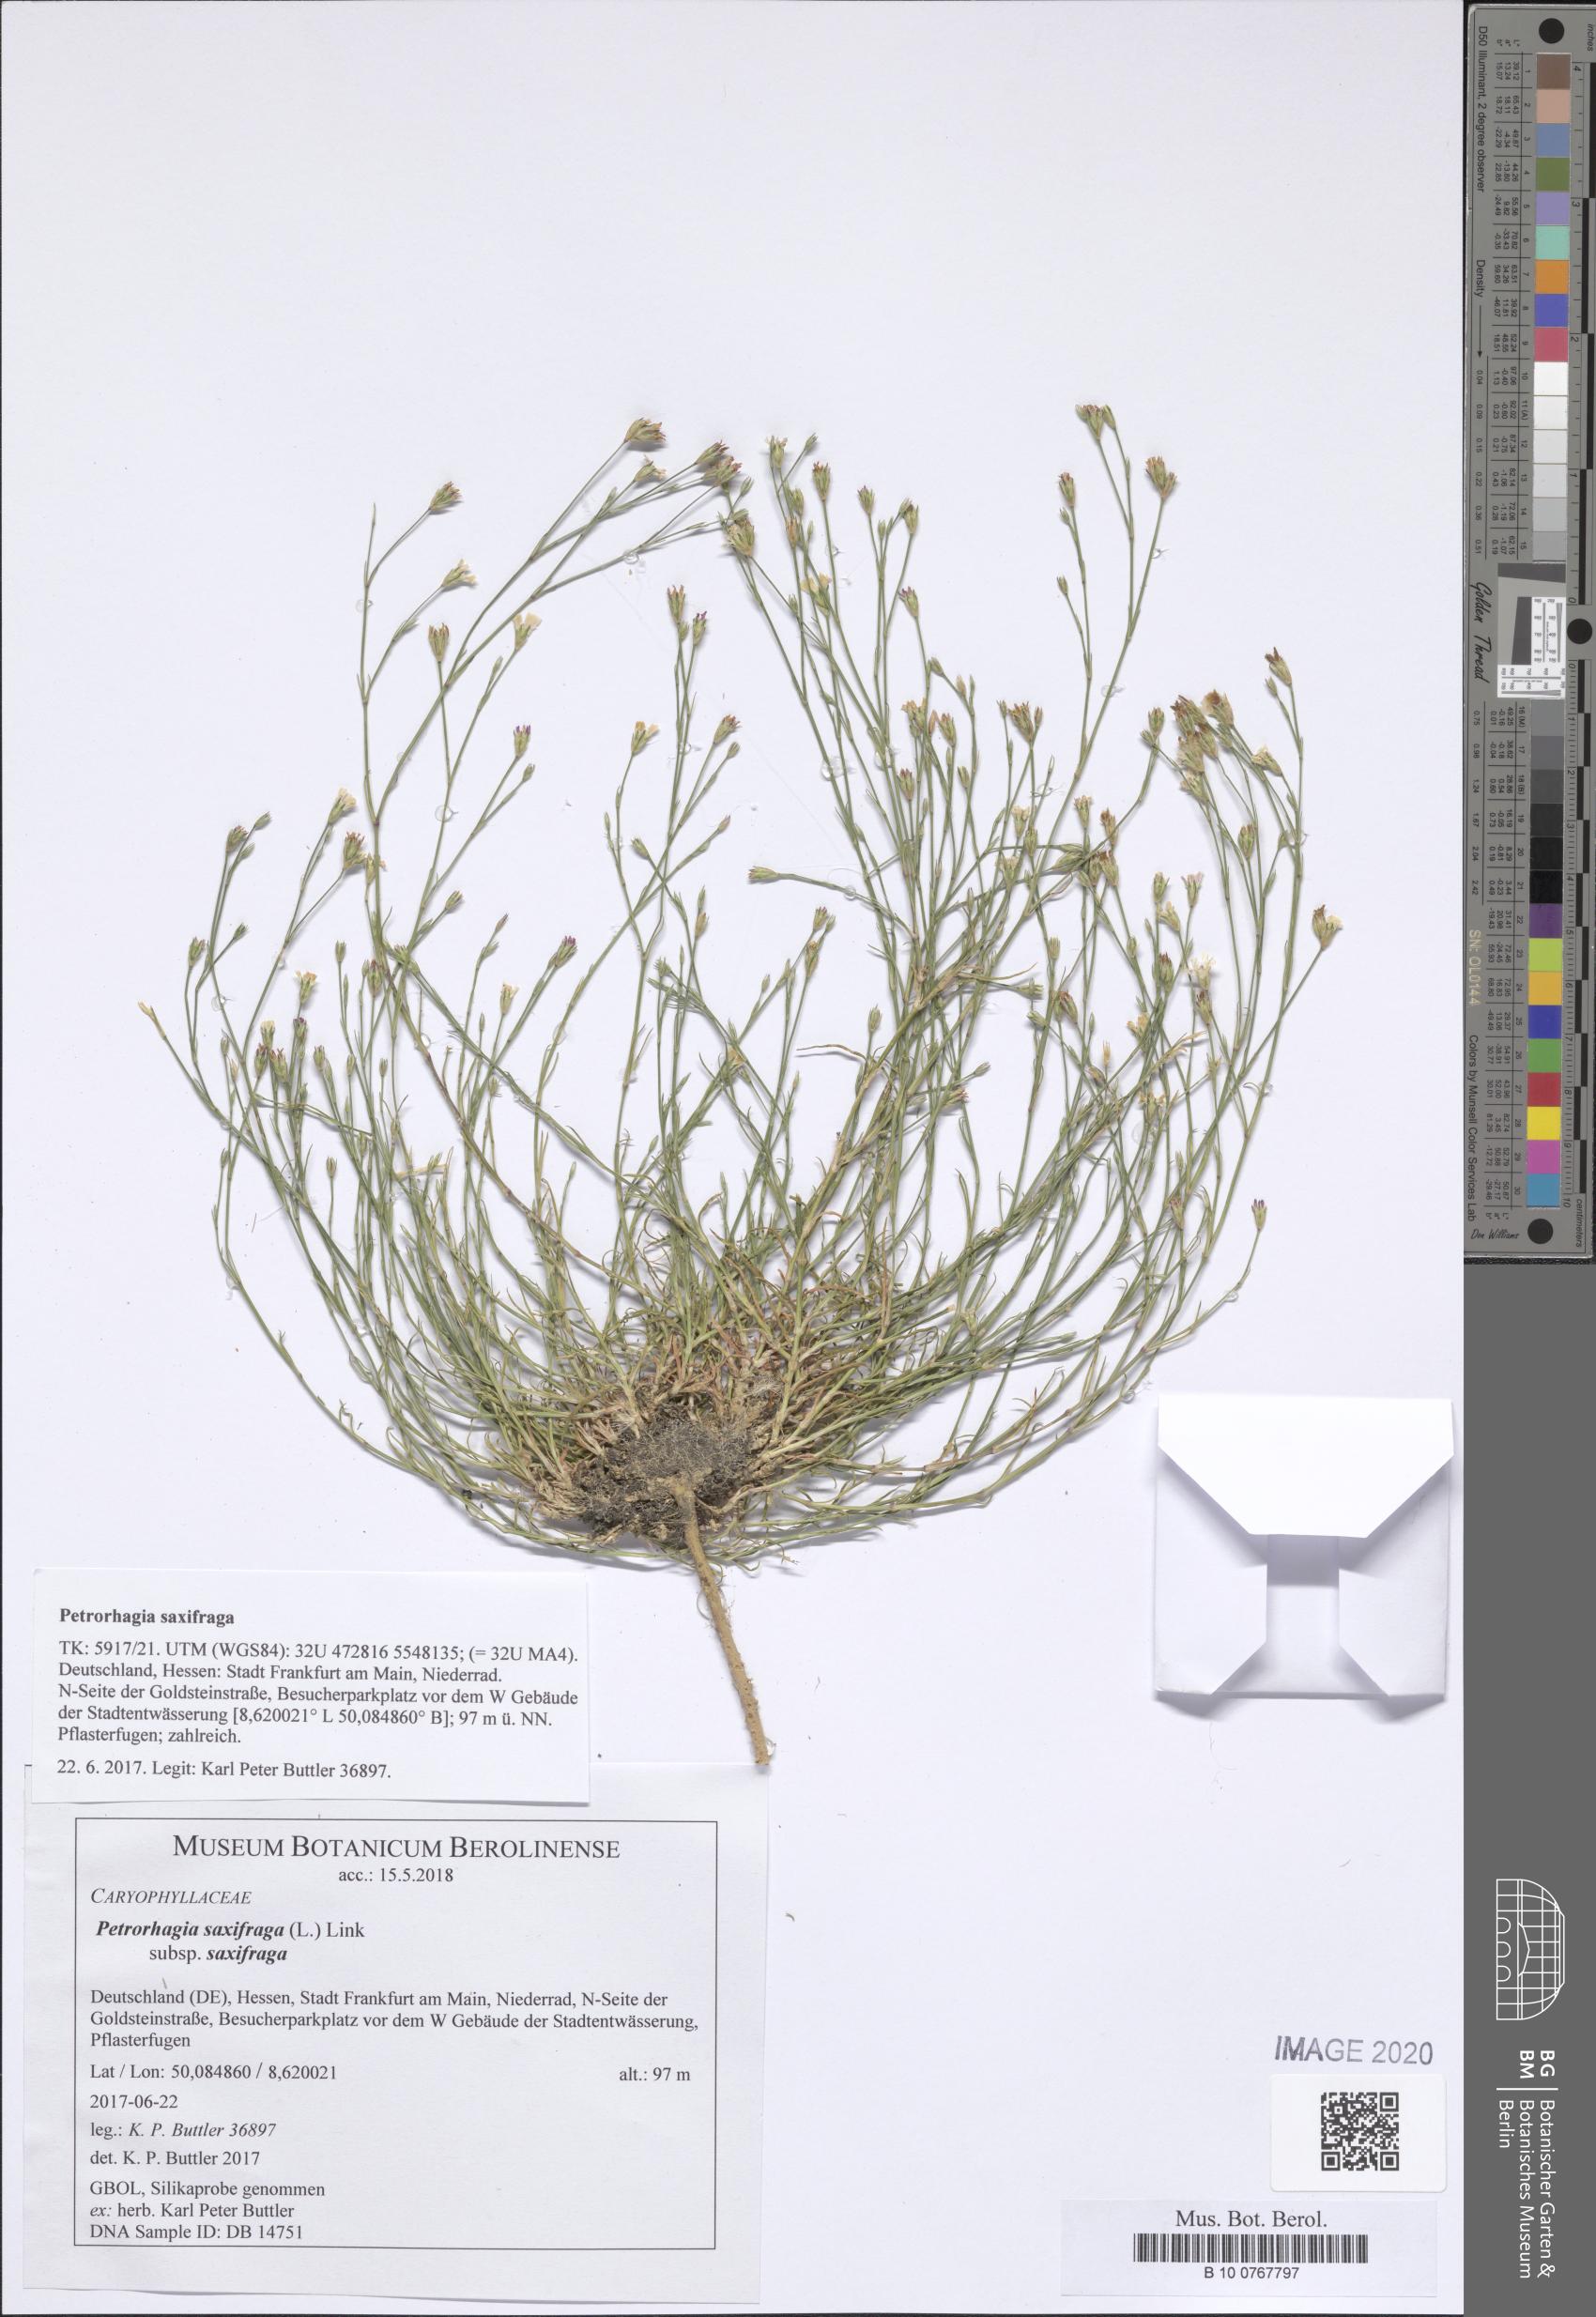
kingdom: Plantae
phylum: Tracheophyta
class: Magnoliopsida
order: Caryophyllales
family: Caryophyllaceae
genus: Petrorhagia
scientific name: Petrorhagia saxifraga
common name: Tunicflower
